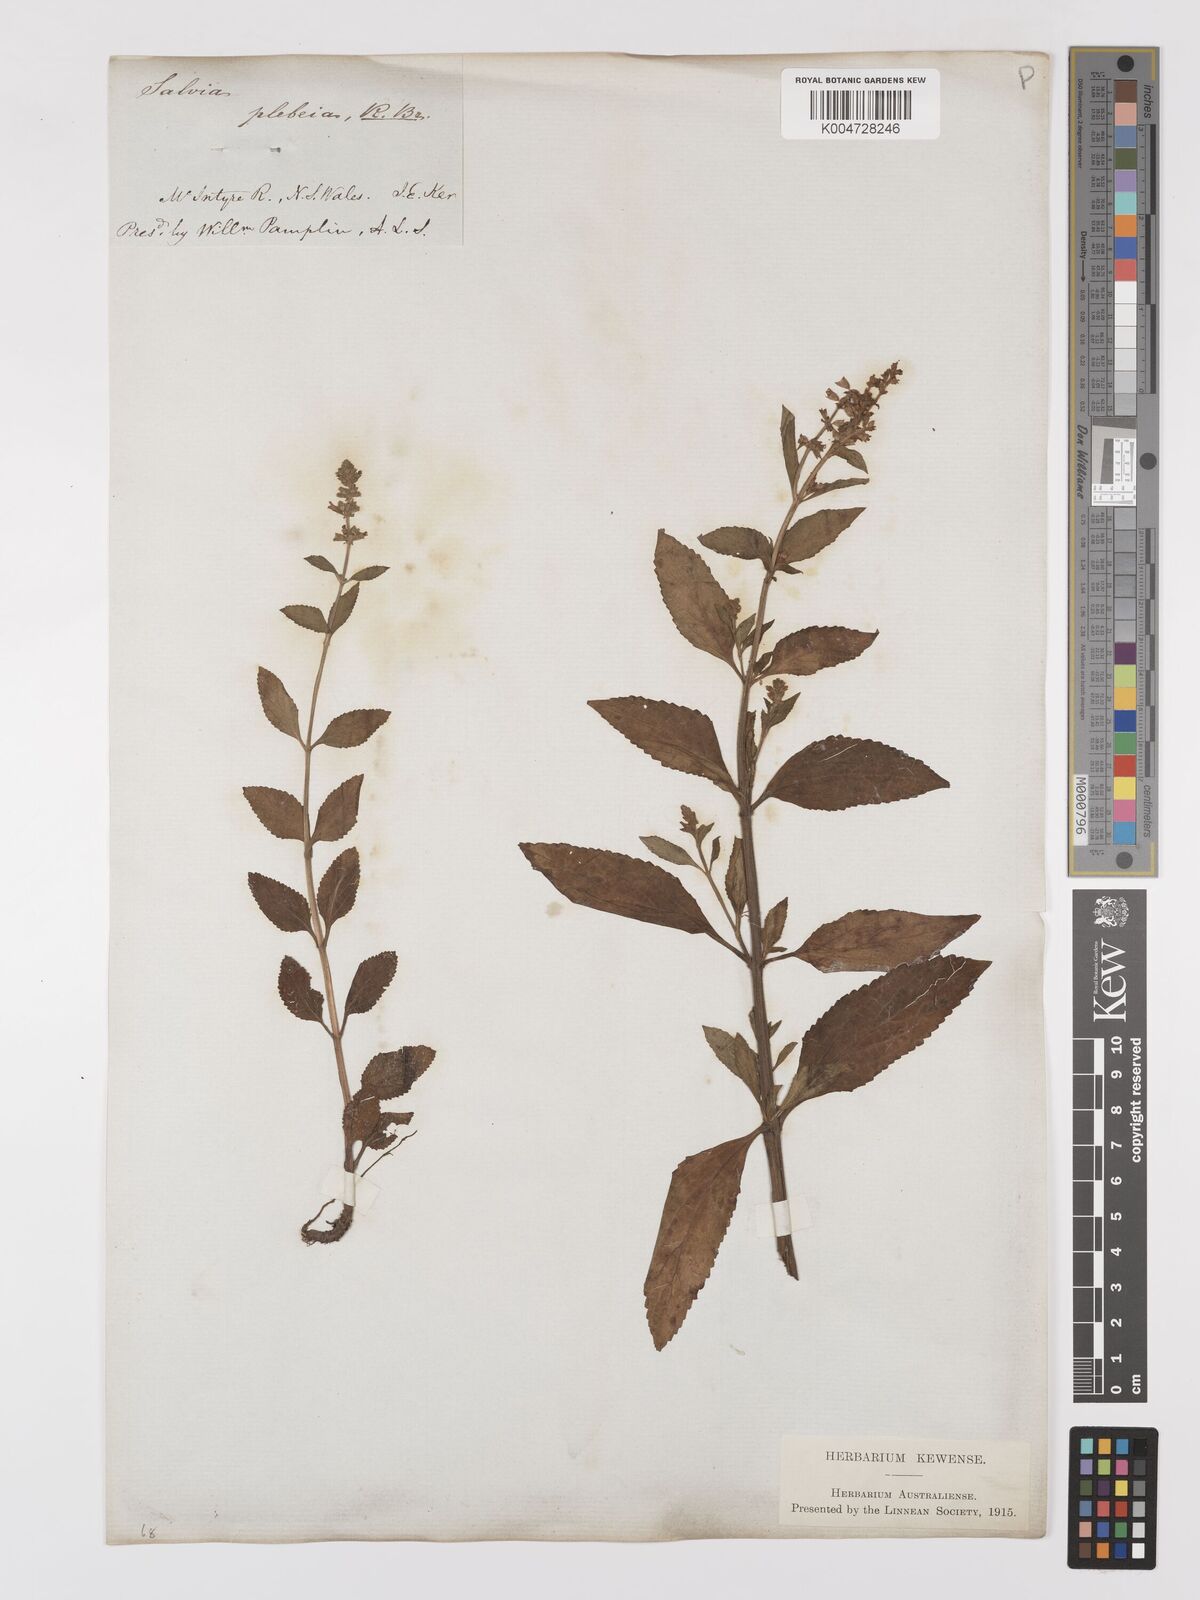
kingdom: Plantae
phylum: Tracheophyta
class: Magnoliopsida
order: Lamiales
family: Lamiaceae
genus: Salvia
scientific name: Salvia plebeia
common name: Australian sage
